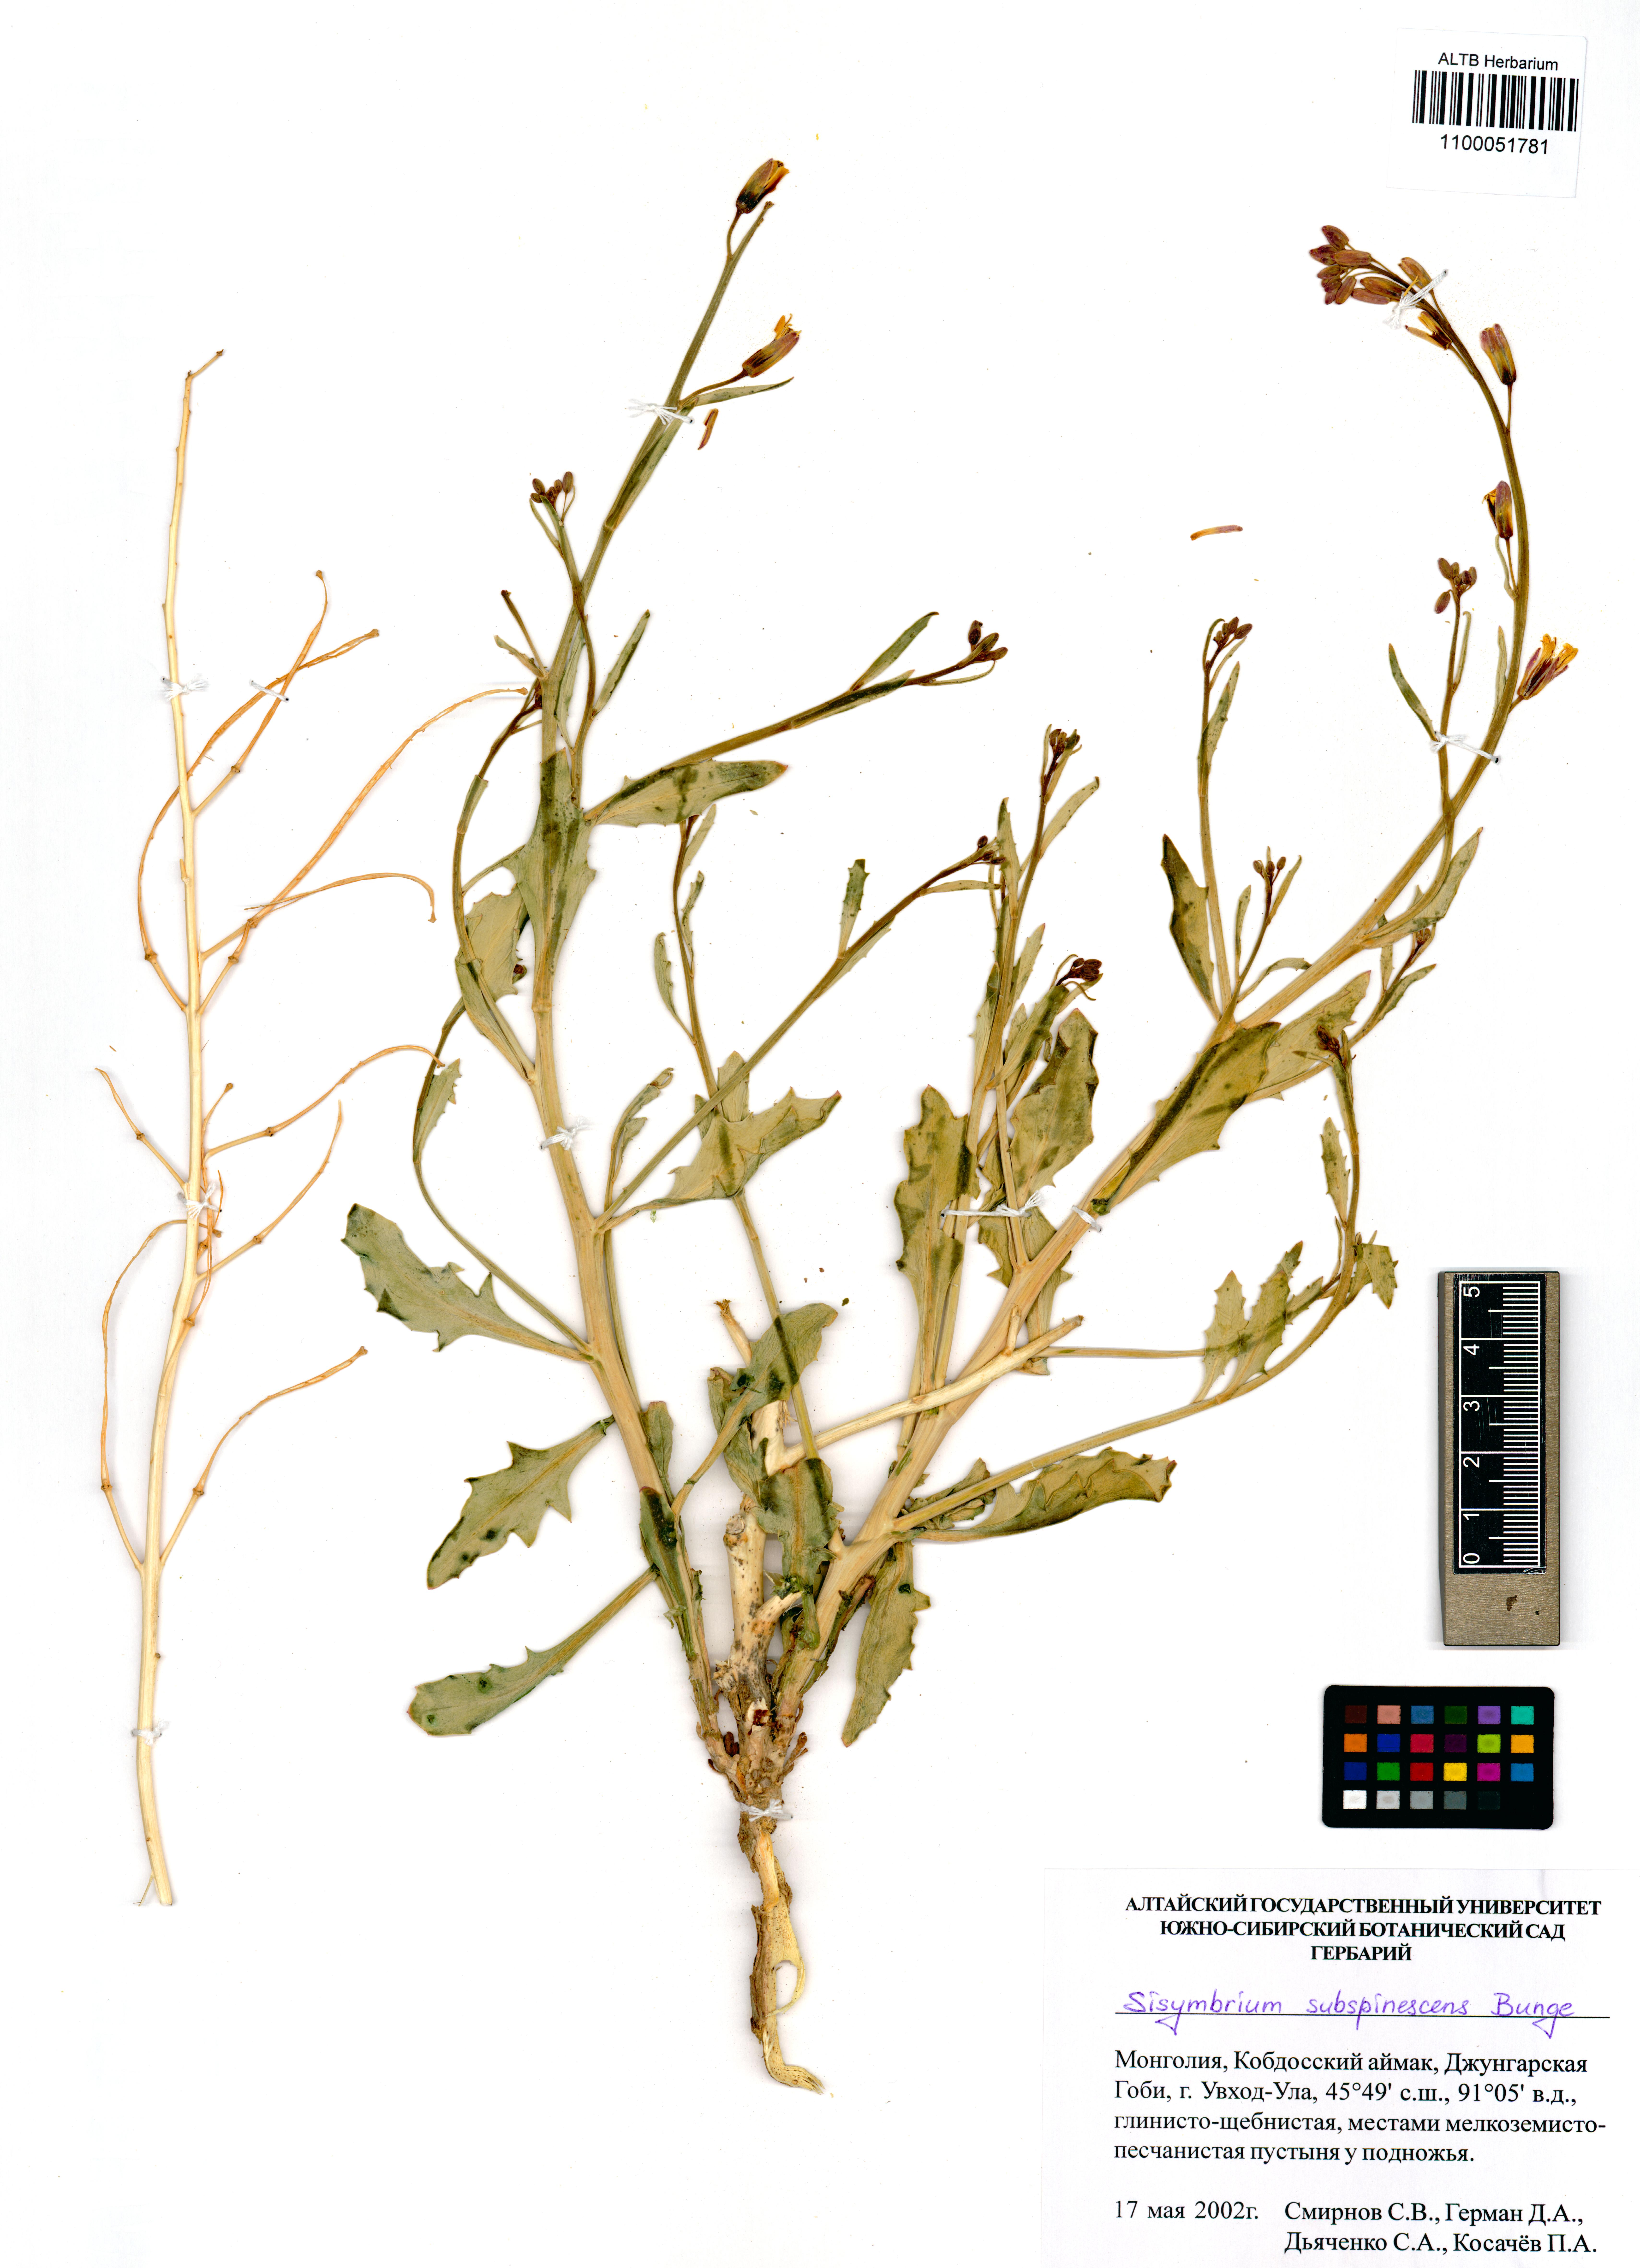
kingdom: Plantae
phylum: Tracheophyta
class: Magnoliopsida
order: Brassicales
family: Brassicaceae
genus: Sisymbrium
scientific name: Sisymbrium subspinescens
